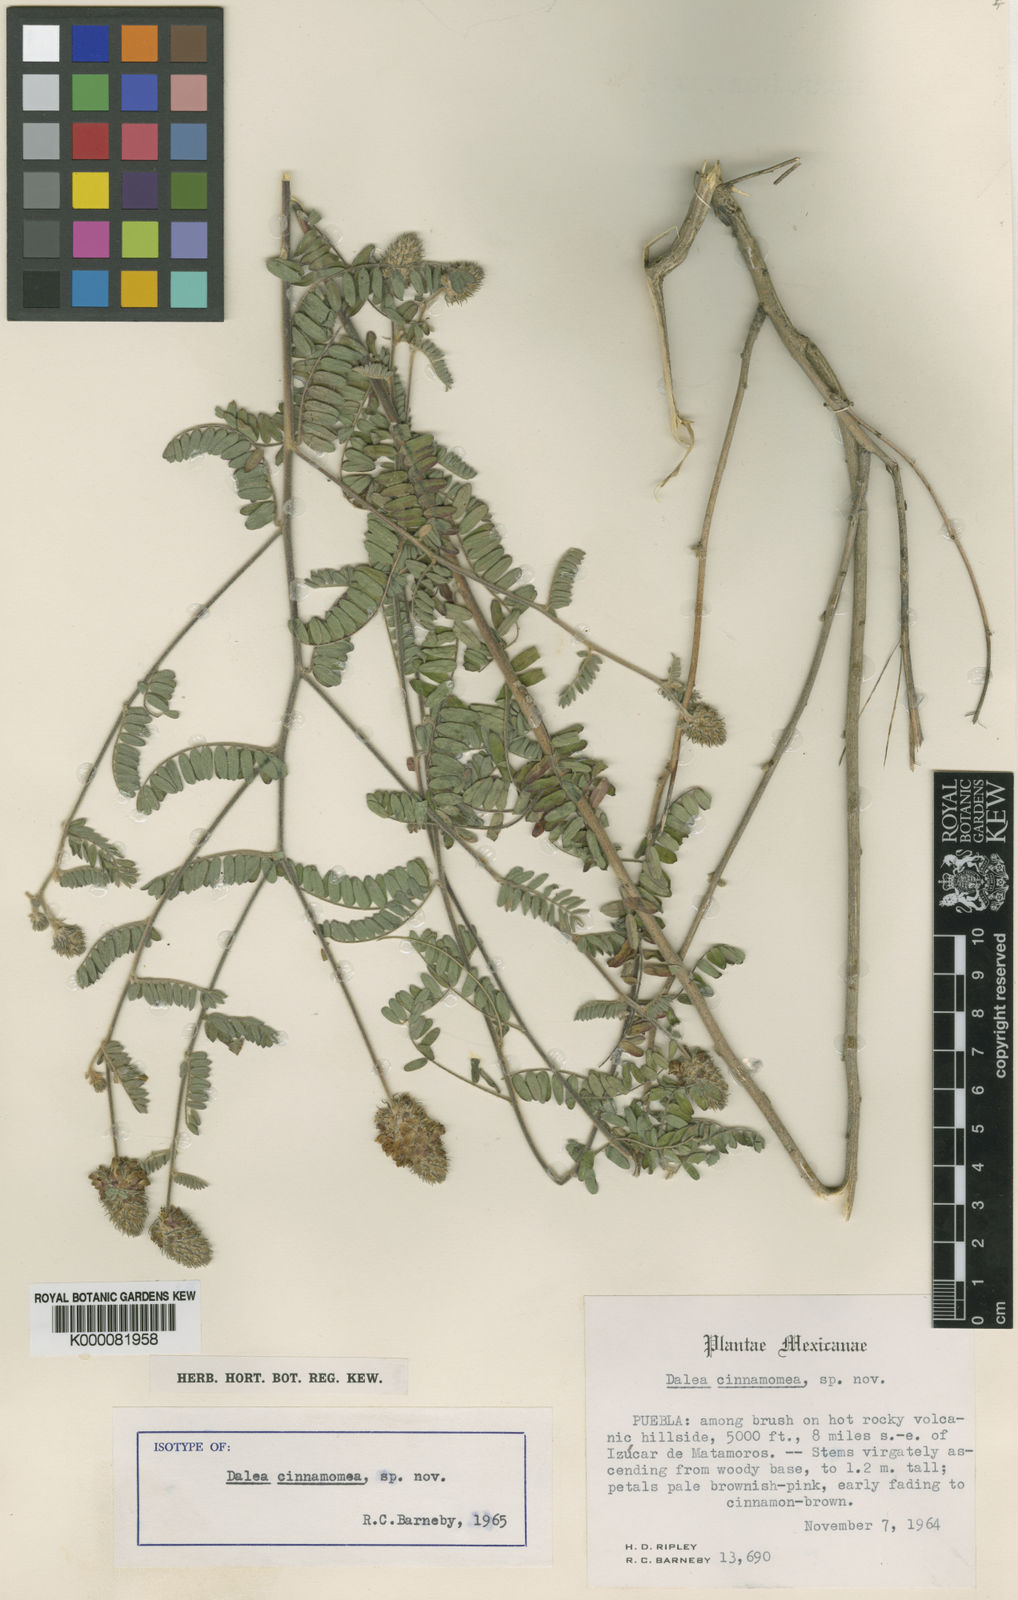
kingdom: Plantae
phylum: Tracheophyta
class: Magnoliopsida
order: Fabales
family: Fabaceae
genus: Dalea
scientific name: Dalea cinnamomea
